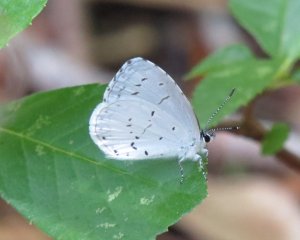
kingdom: Animalia
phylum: Arthropoda
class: Insecta
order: Lepidoptera
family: Lycaenidae
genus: Cyaniris
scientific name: Cyaniris neglecta
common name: Summer Azure
